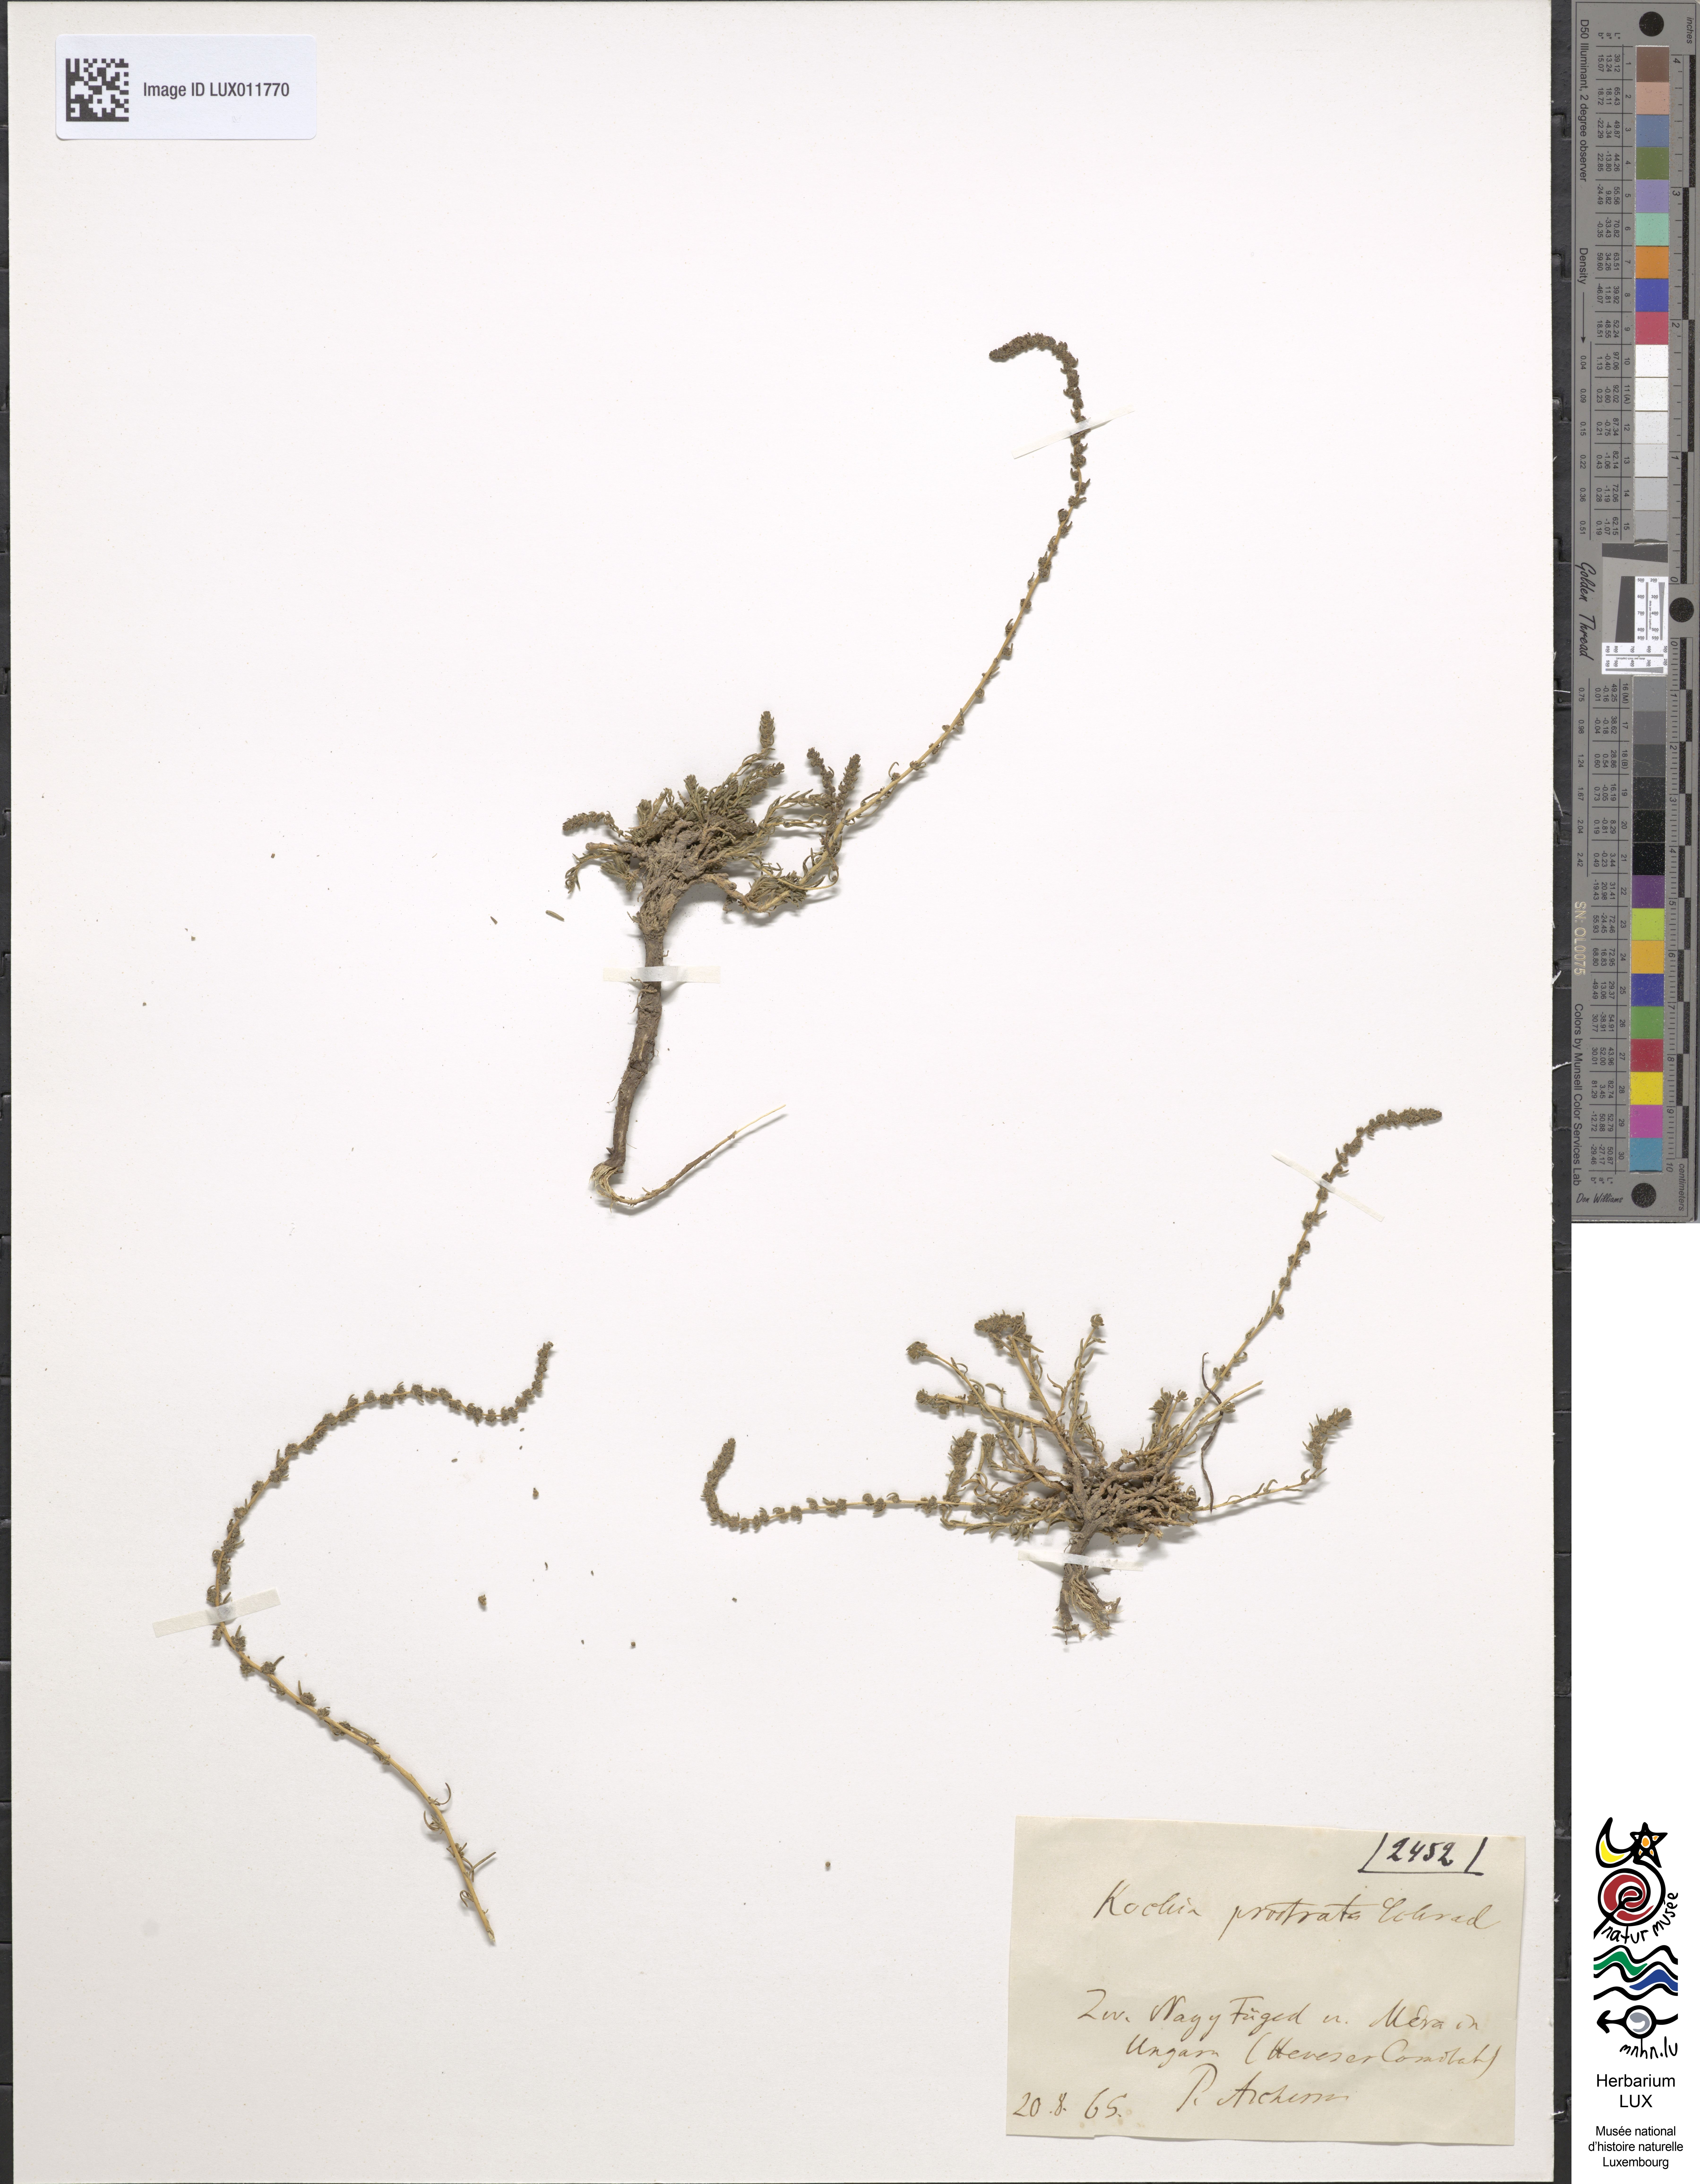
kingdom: Plantae
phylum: Tracheophyta
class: Magnoliopsida
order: Caryophyllales
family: Amaranthaceae
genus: Bassia
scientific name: Bassia prostrata
